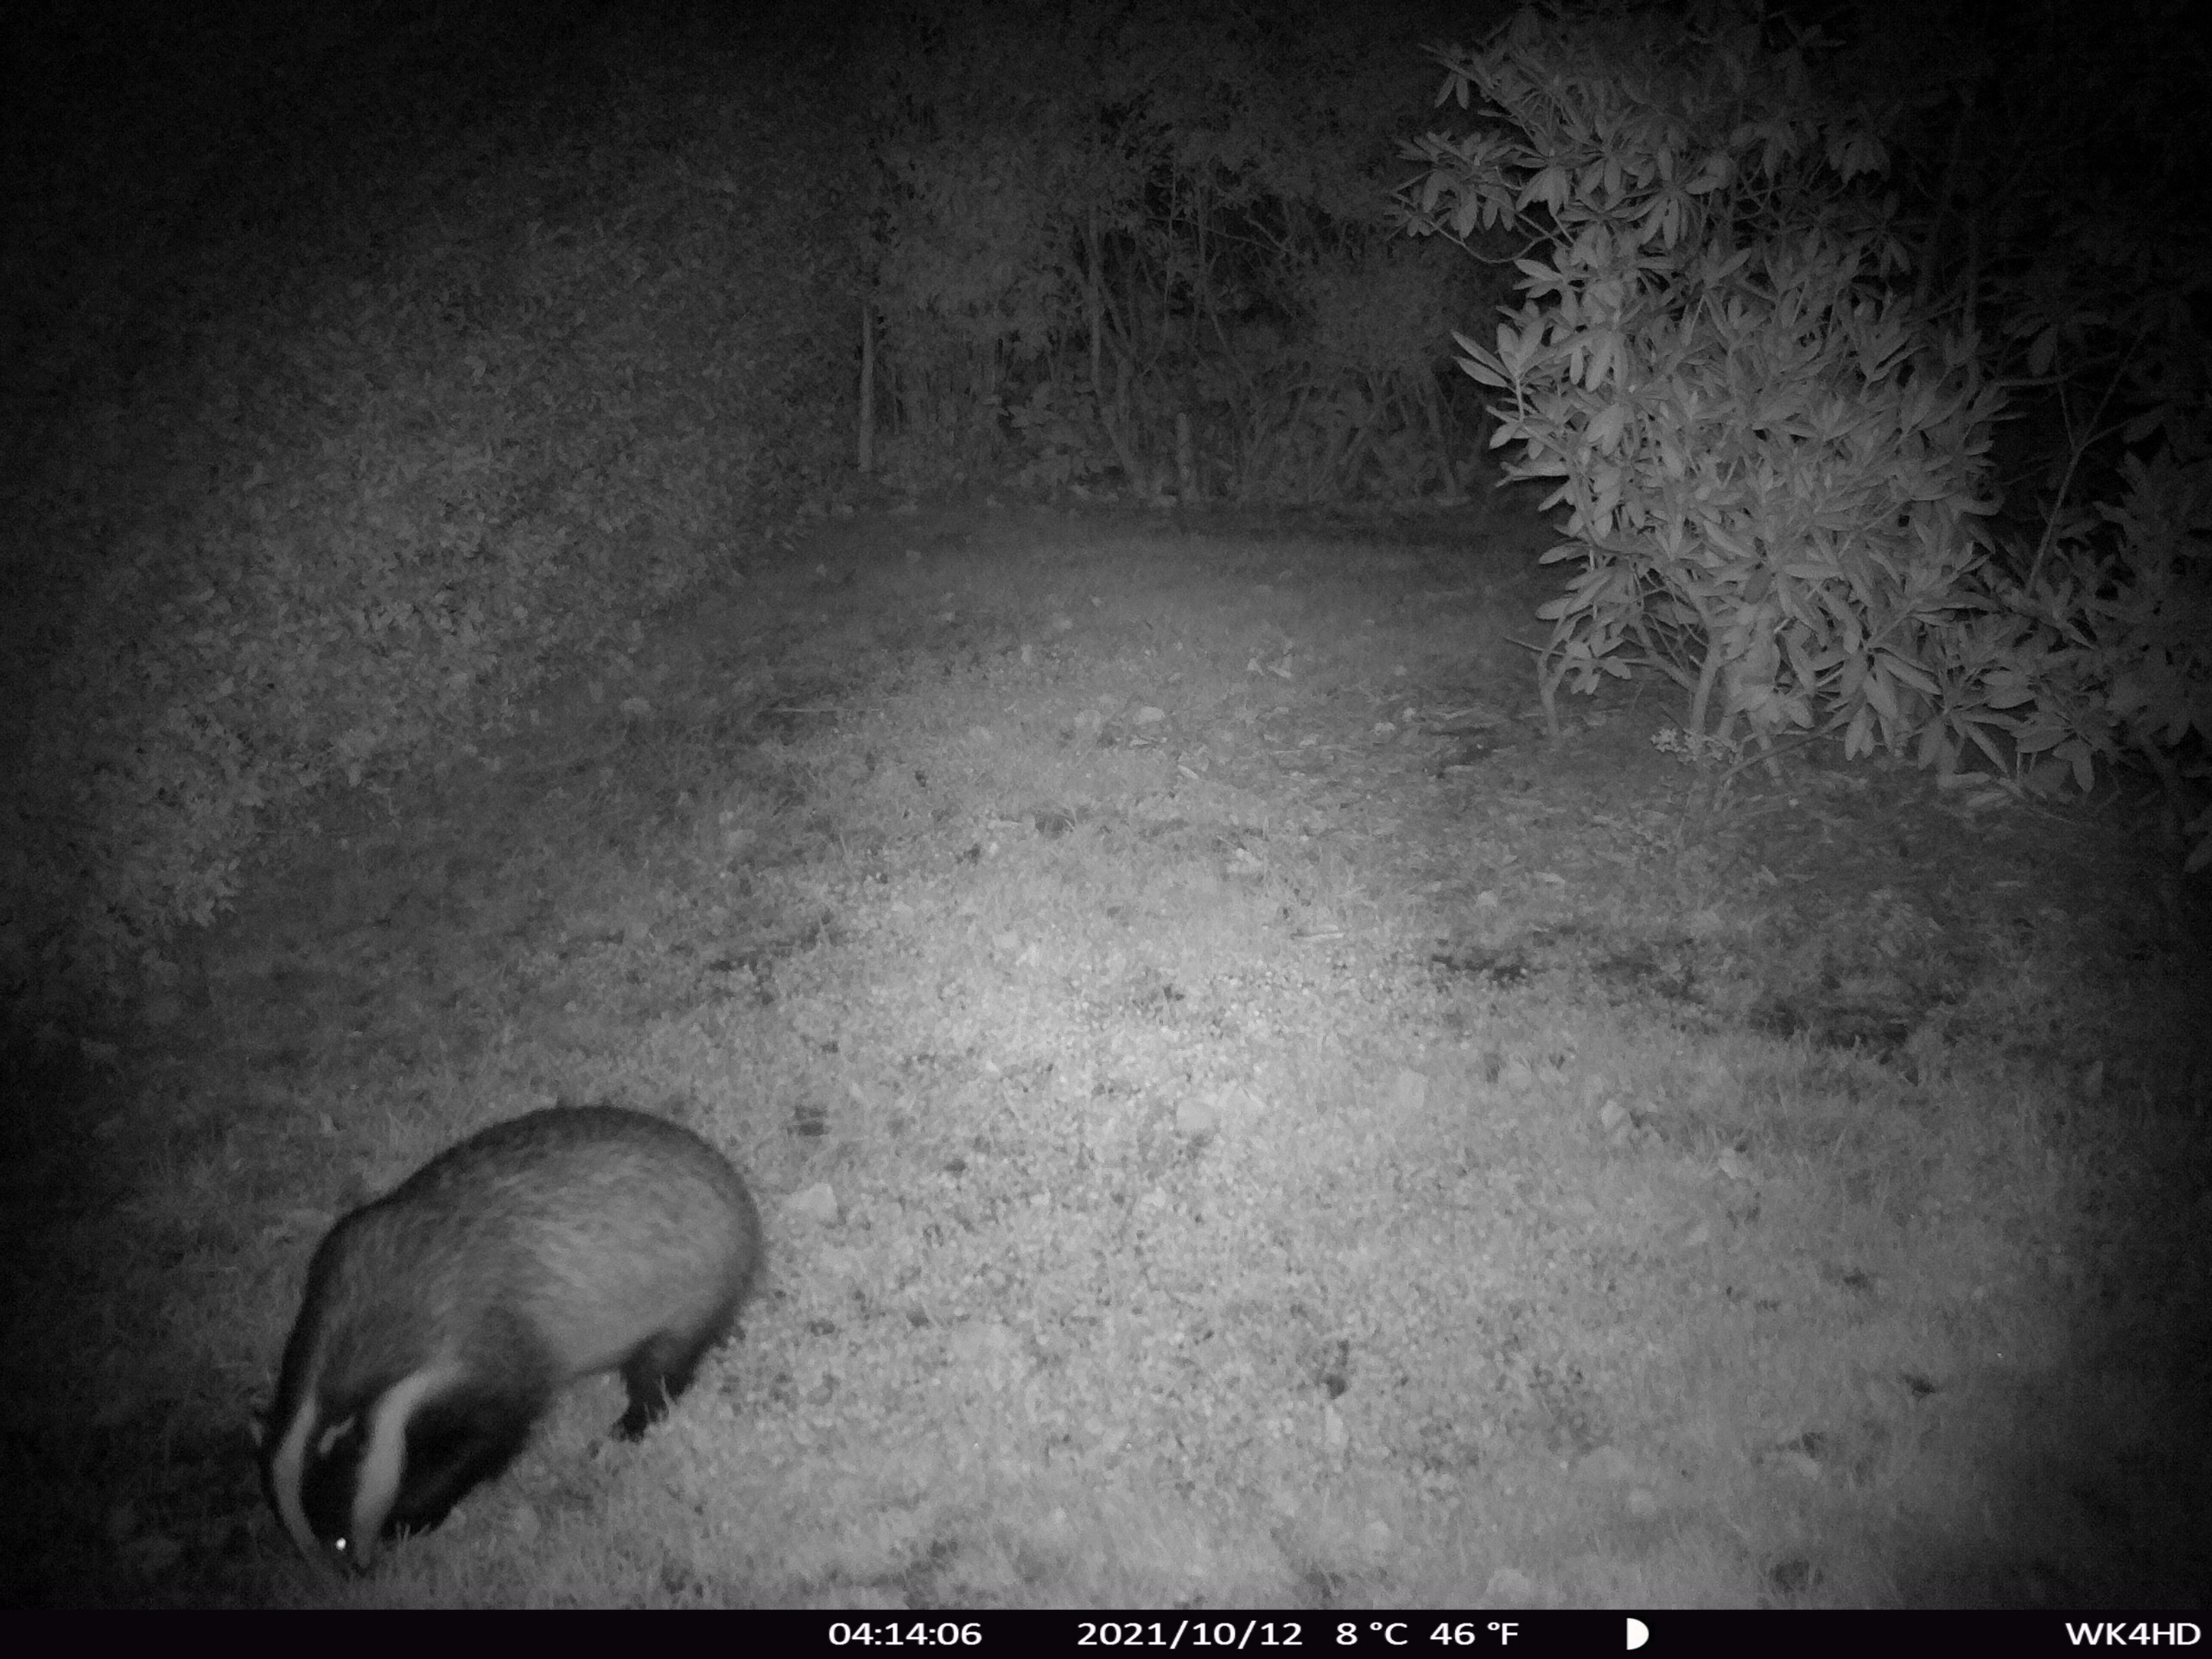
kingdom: Animalia
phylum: Chordata
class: Mammalia
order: Carnivora
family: Mustelidae
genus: Meles
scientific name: Meles meles
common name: Grævling
